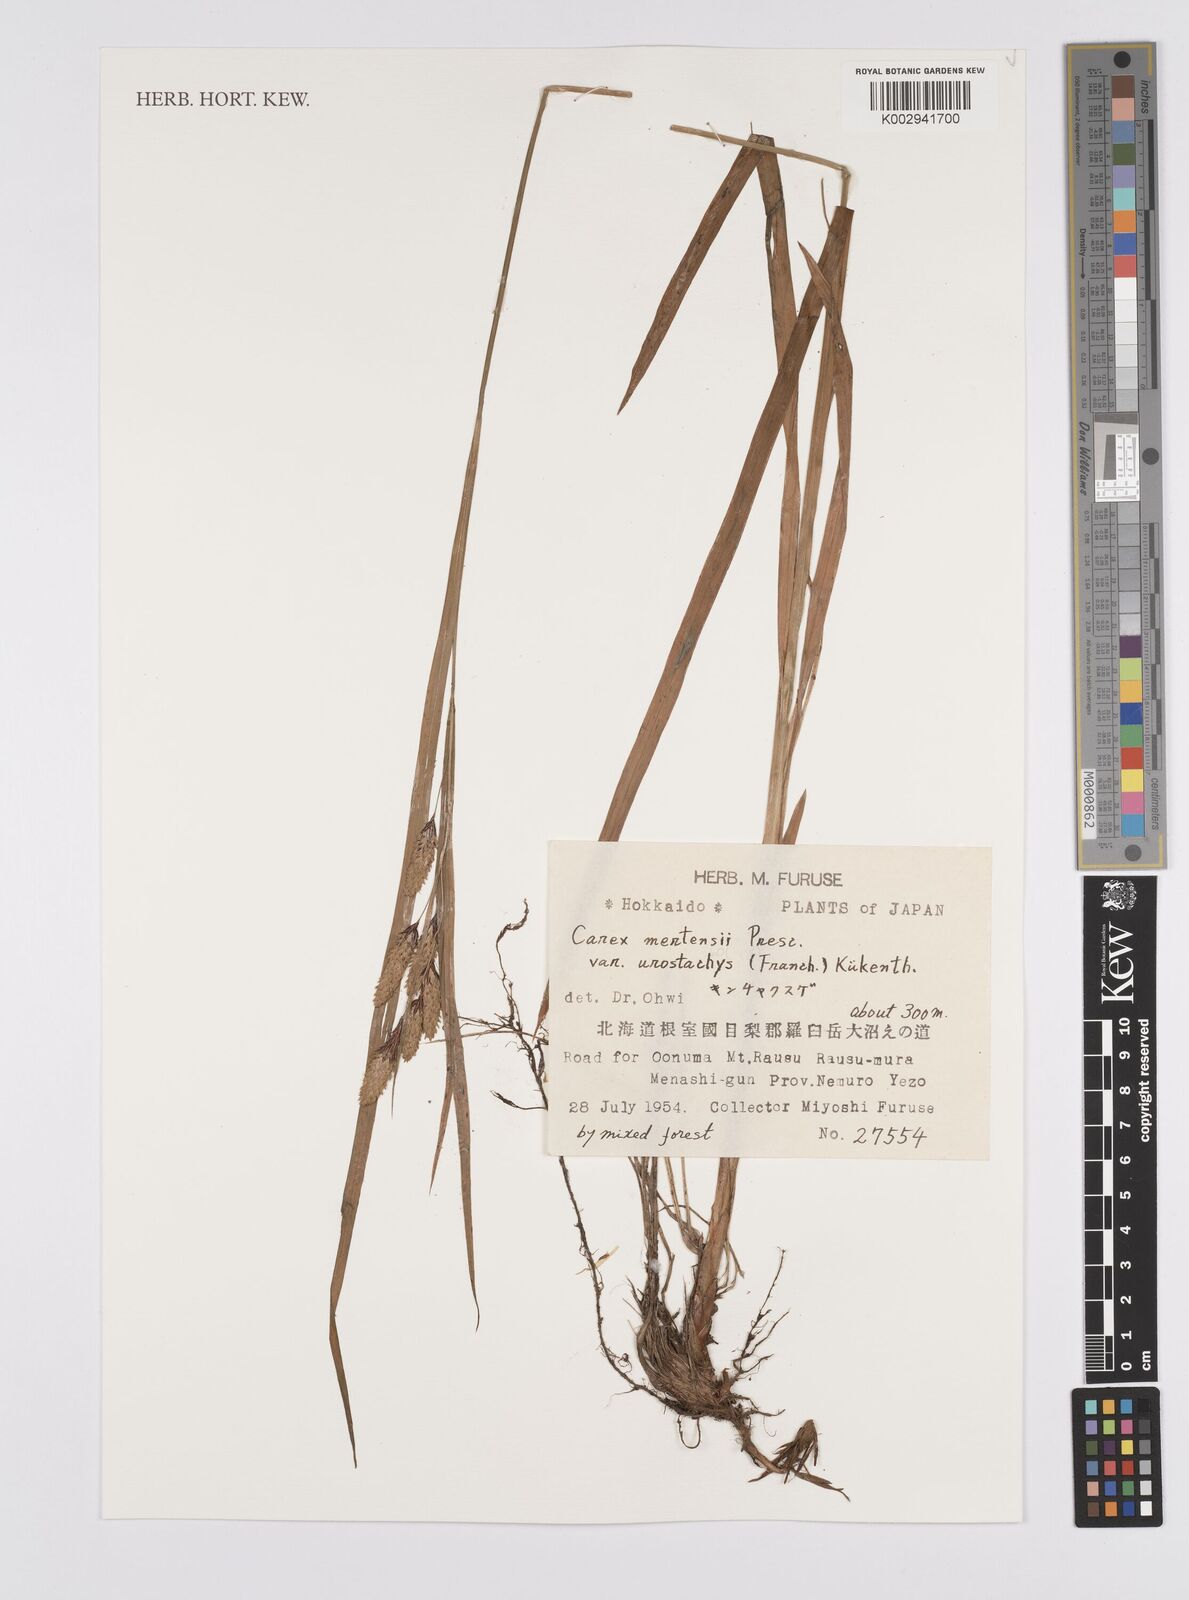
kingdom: Plantae
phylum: Tracheophyta
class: Liliopsida
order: Poales
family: Cyperaceae
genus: Carex
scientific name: Carex finitima
